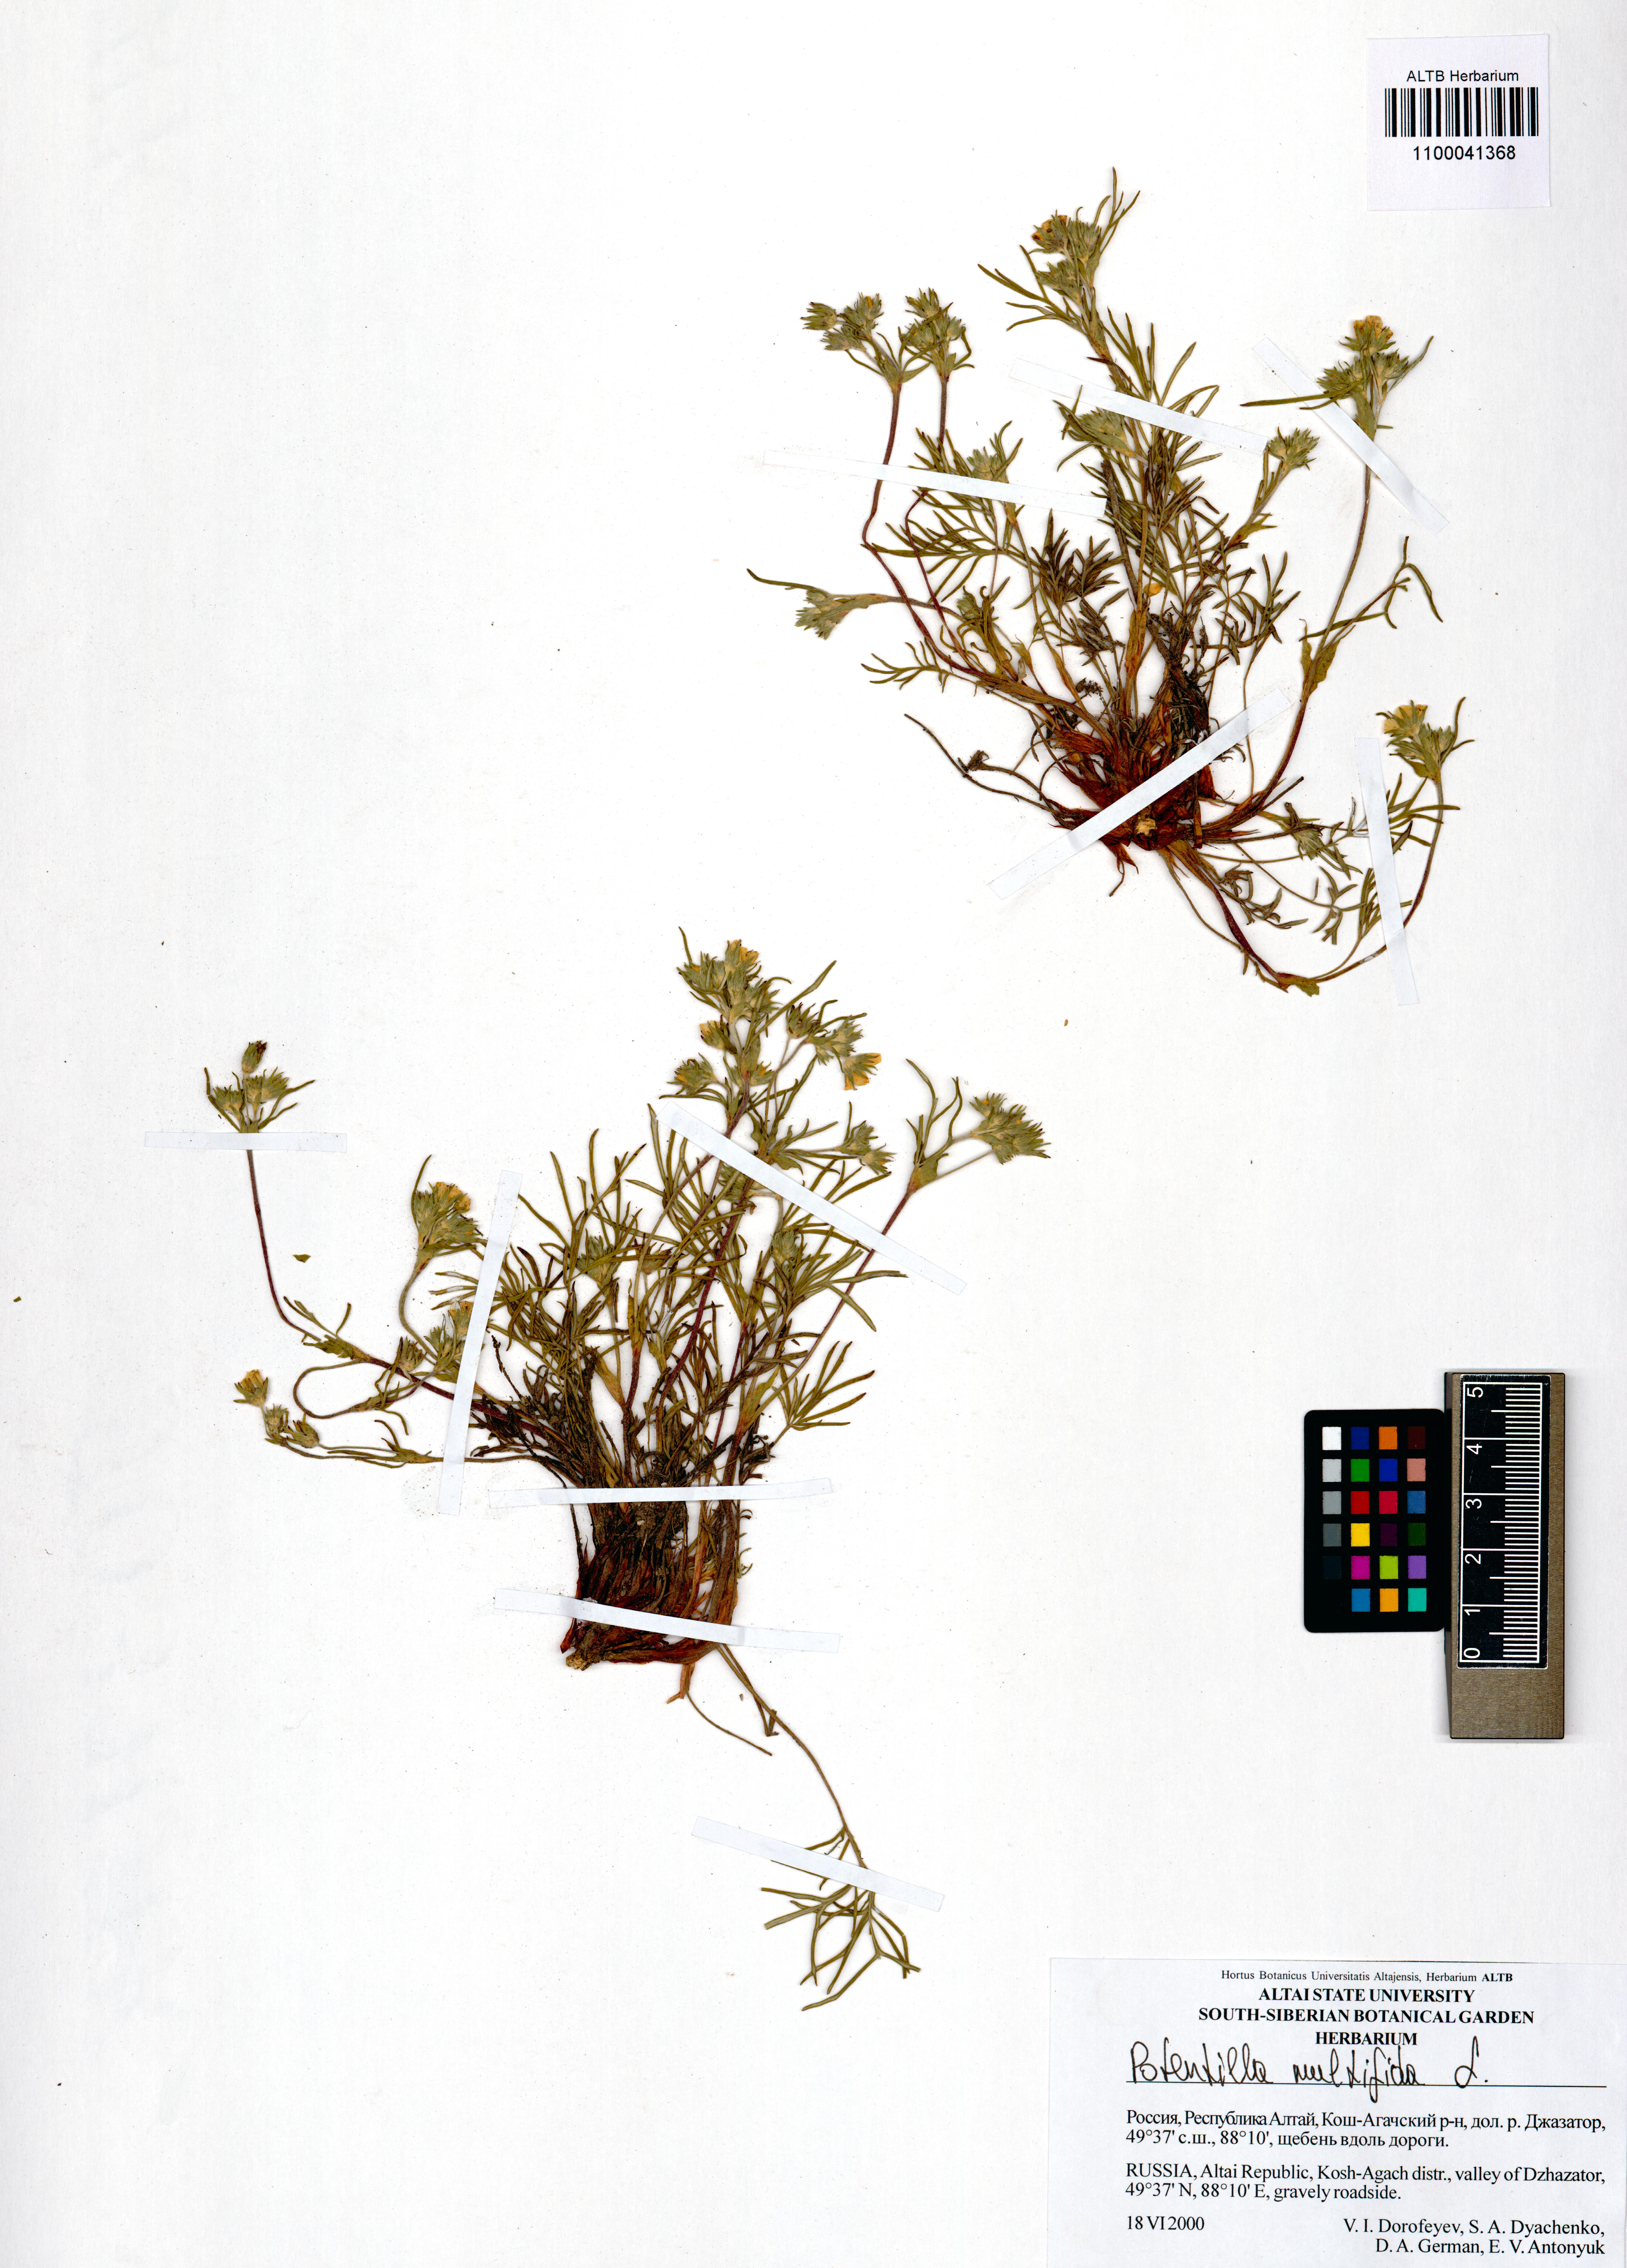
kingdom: Plantae
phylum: Tracheophyta
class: Magnoliopsida
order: Rosales
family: Rosaceae
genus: Potentilla
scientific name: Potentilla multifida
